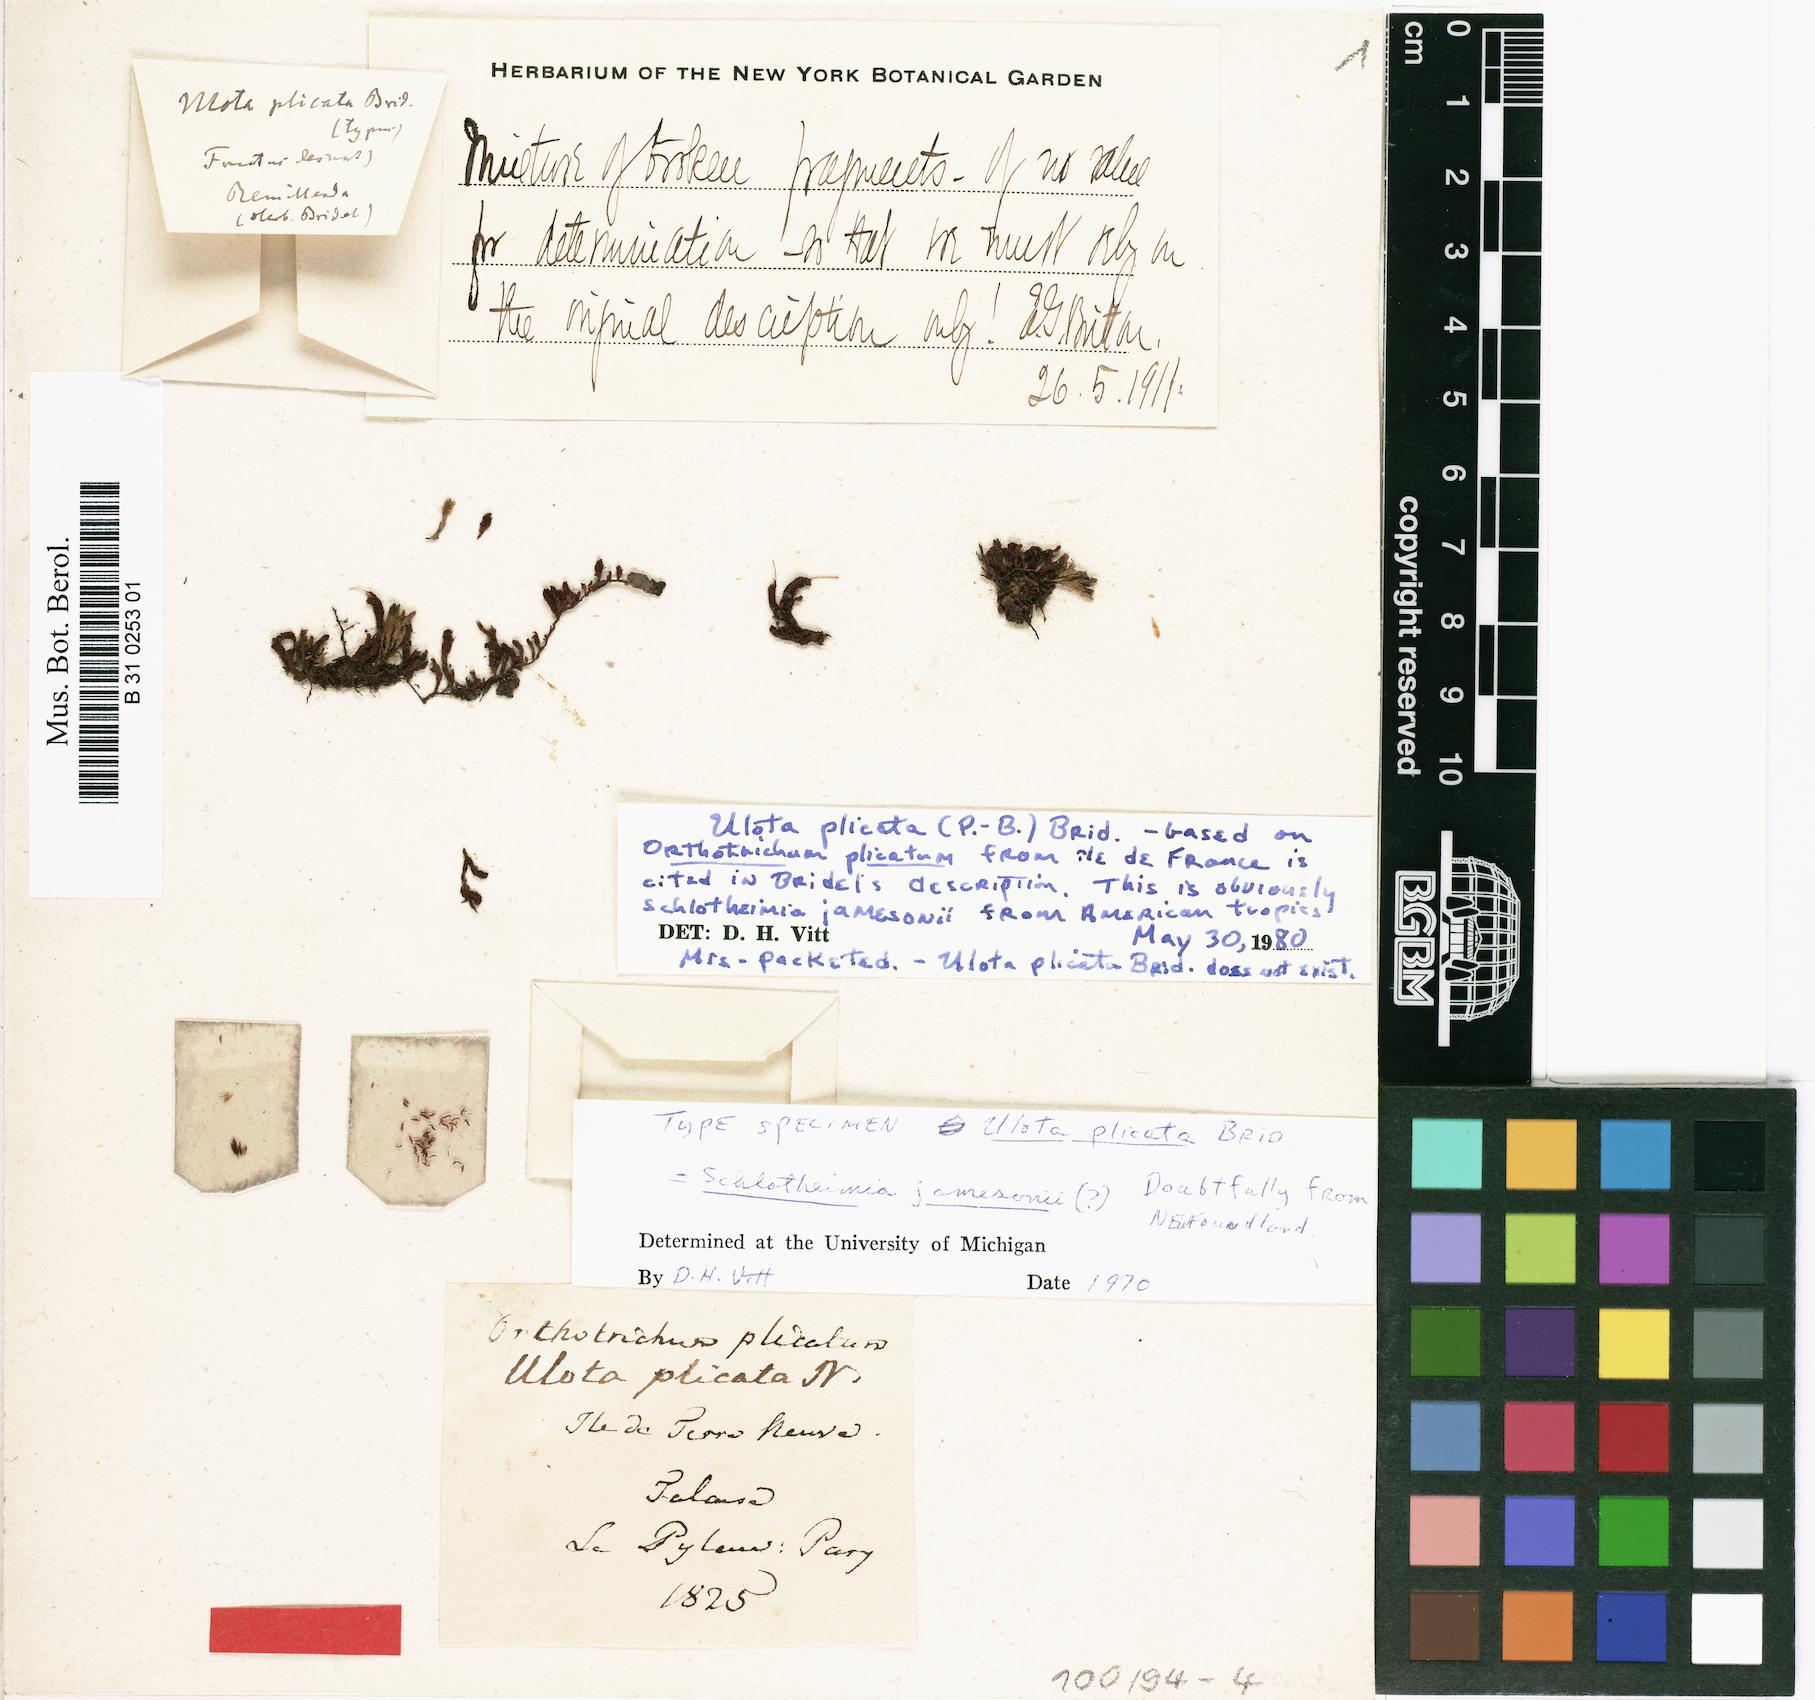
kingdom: Plantae
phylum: Bryophyta
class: Bryopsida
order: Orthotrichales
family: Orthotrichaceae
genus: Leiomitrium
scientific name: Leiomitrium plicatum
